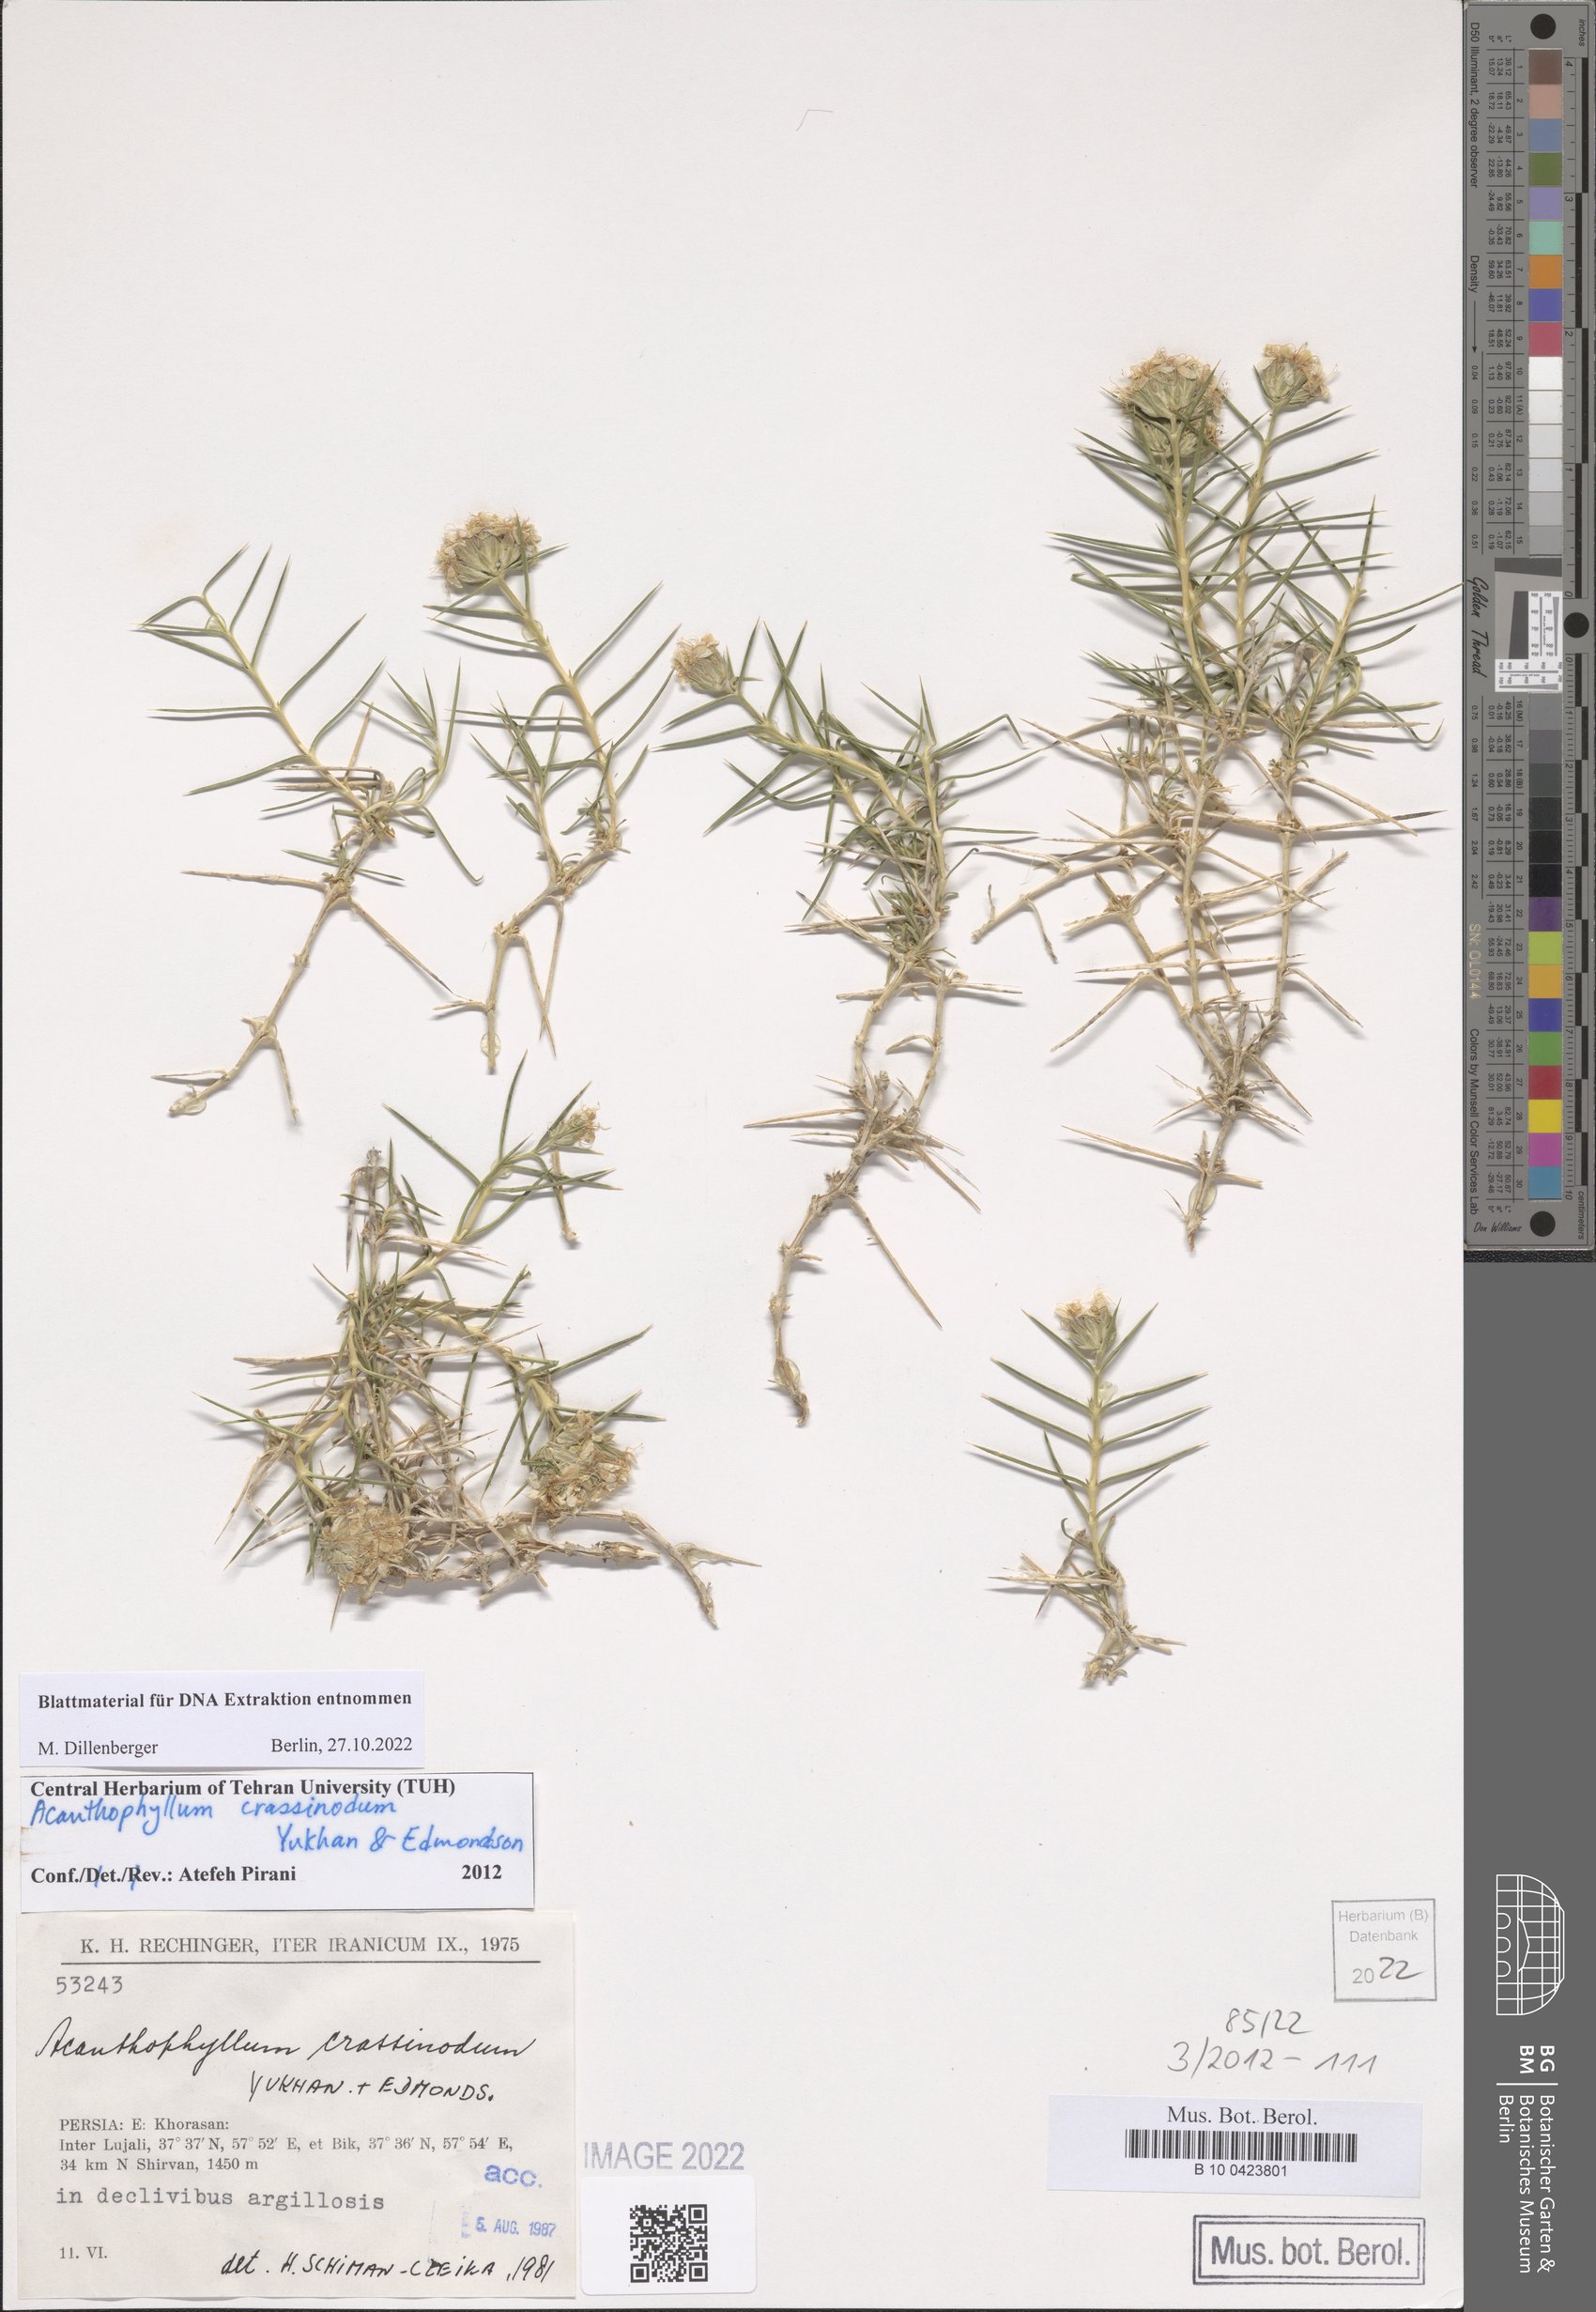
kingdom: Plantae
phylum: Tracheophyta
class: Magnoliopsida
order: Caryophyllales
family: Caryophyllaceae
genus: Acanthophyllum
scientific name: Acanthophyllum crassinodum
